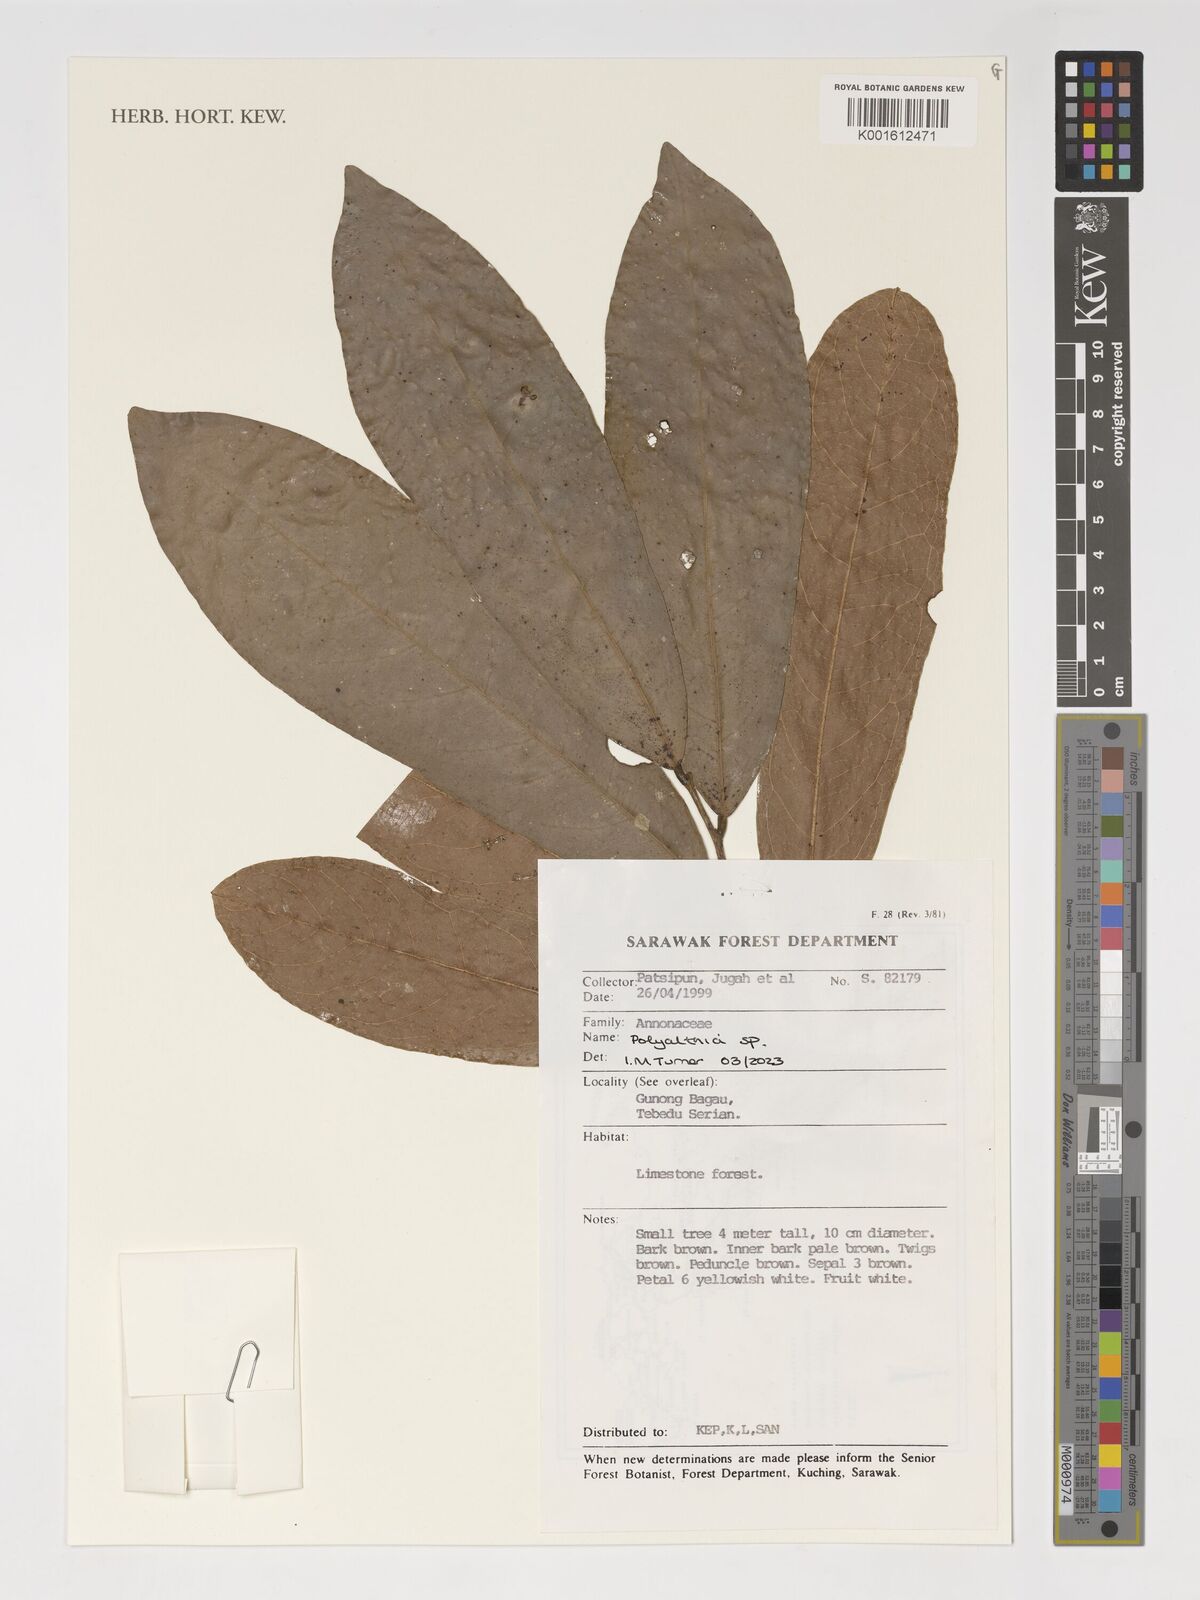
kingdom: Plantae
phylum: Tracheophyta
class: Magnoliopsida
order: Magnoliales
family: Annonaceae
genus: Polyalthia
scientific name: Polyalthia
